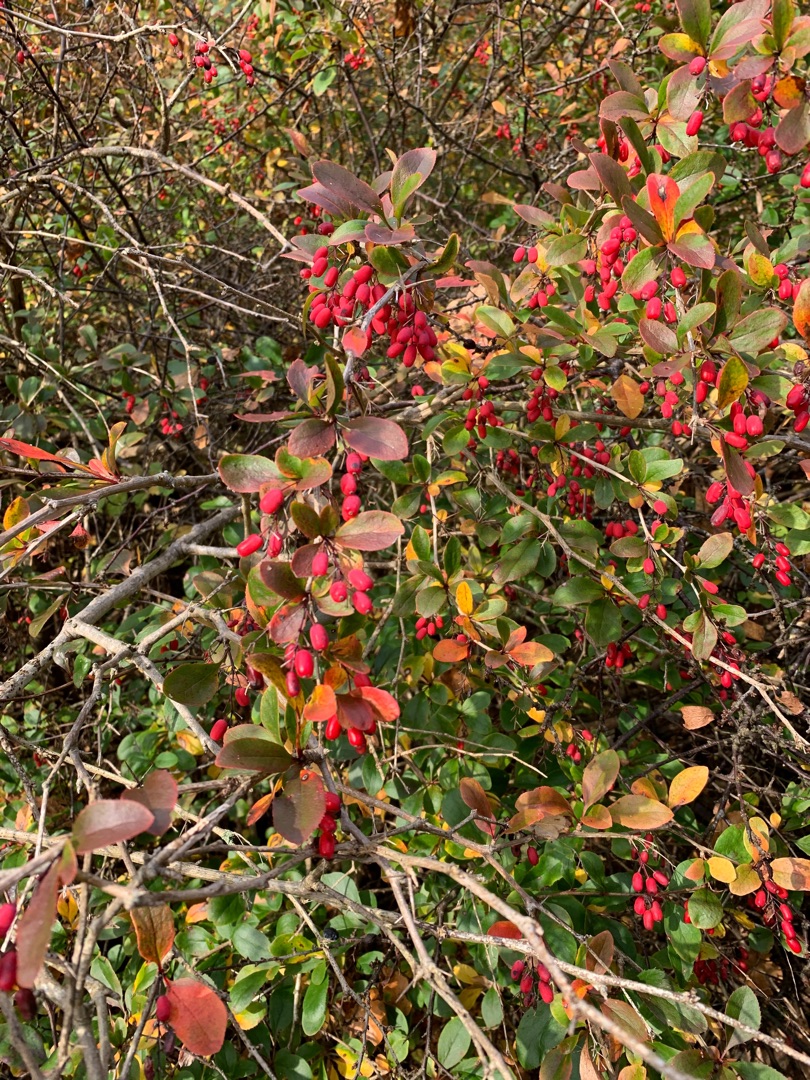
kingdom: Plantae
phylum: Tracheophyta
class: Magnoliopsida
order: Ranunculales
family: Berberidaceae
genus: Berberis
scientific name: Berberis vulgaris
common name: Almindelig berberis
